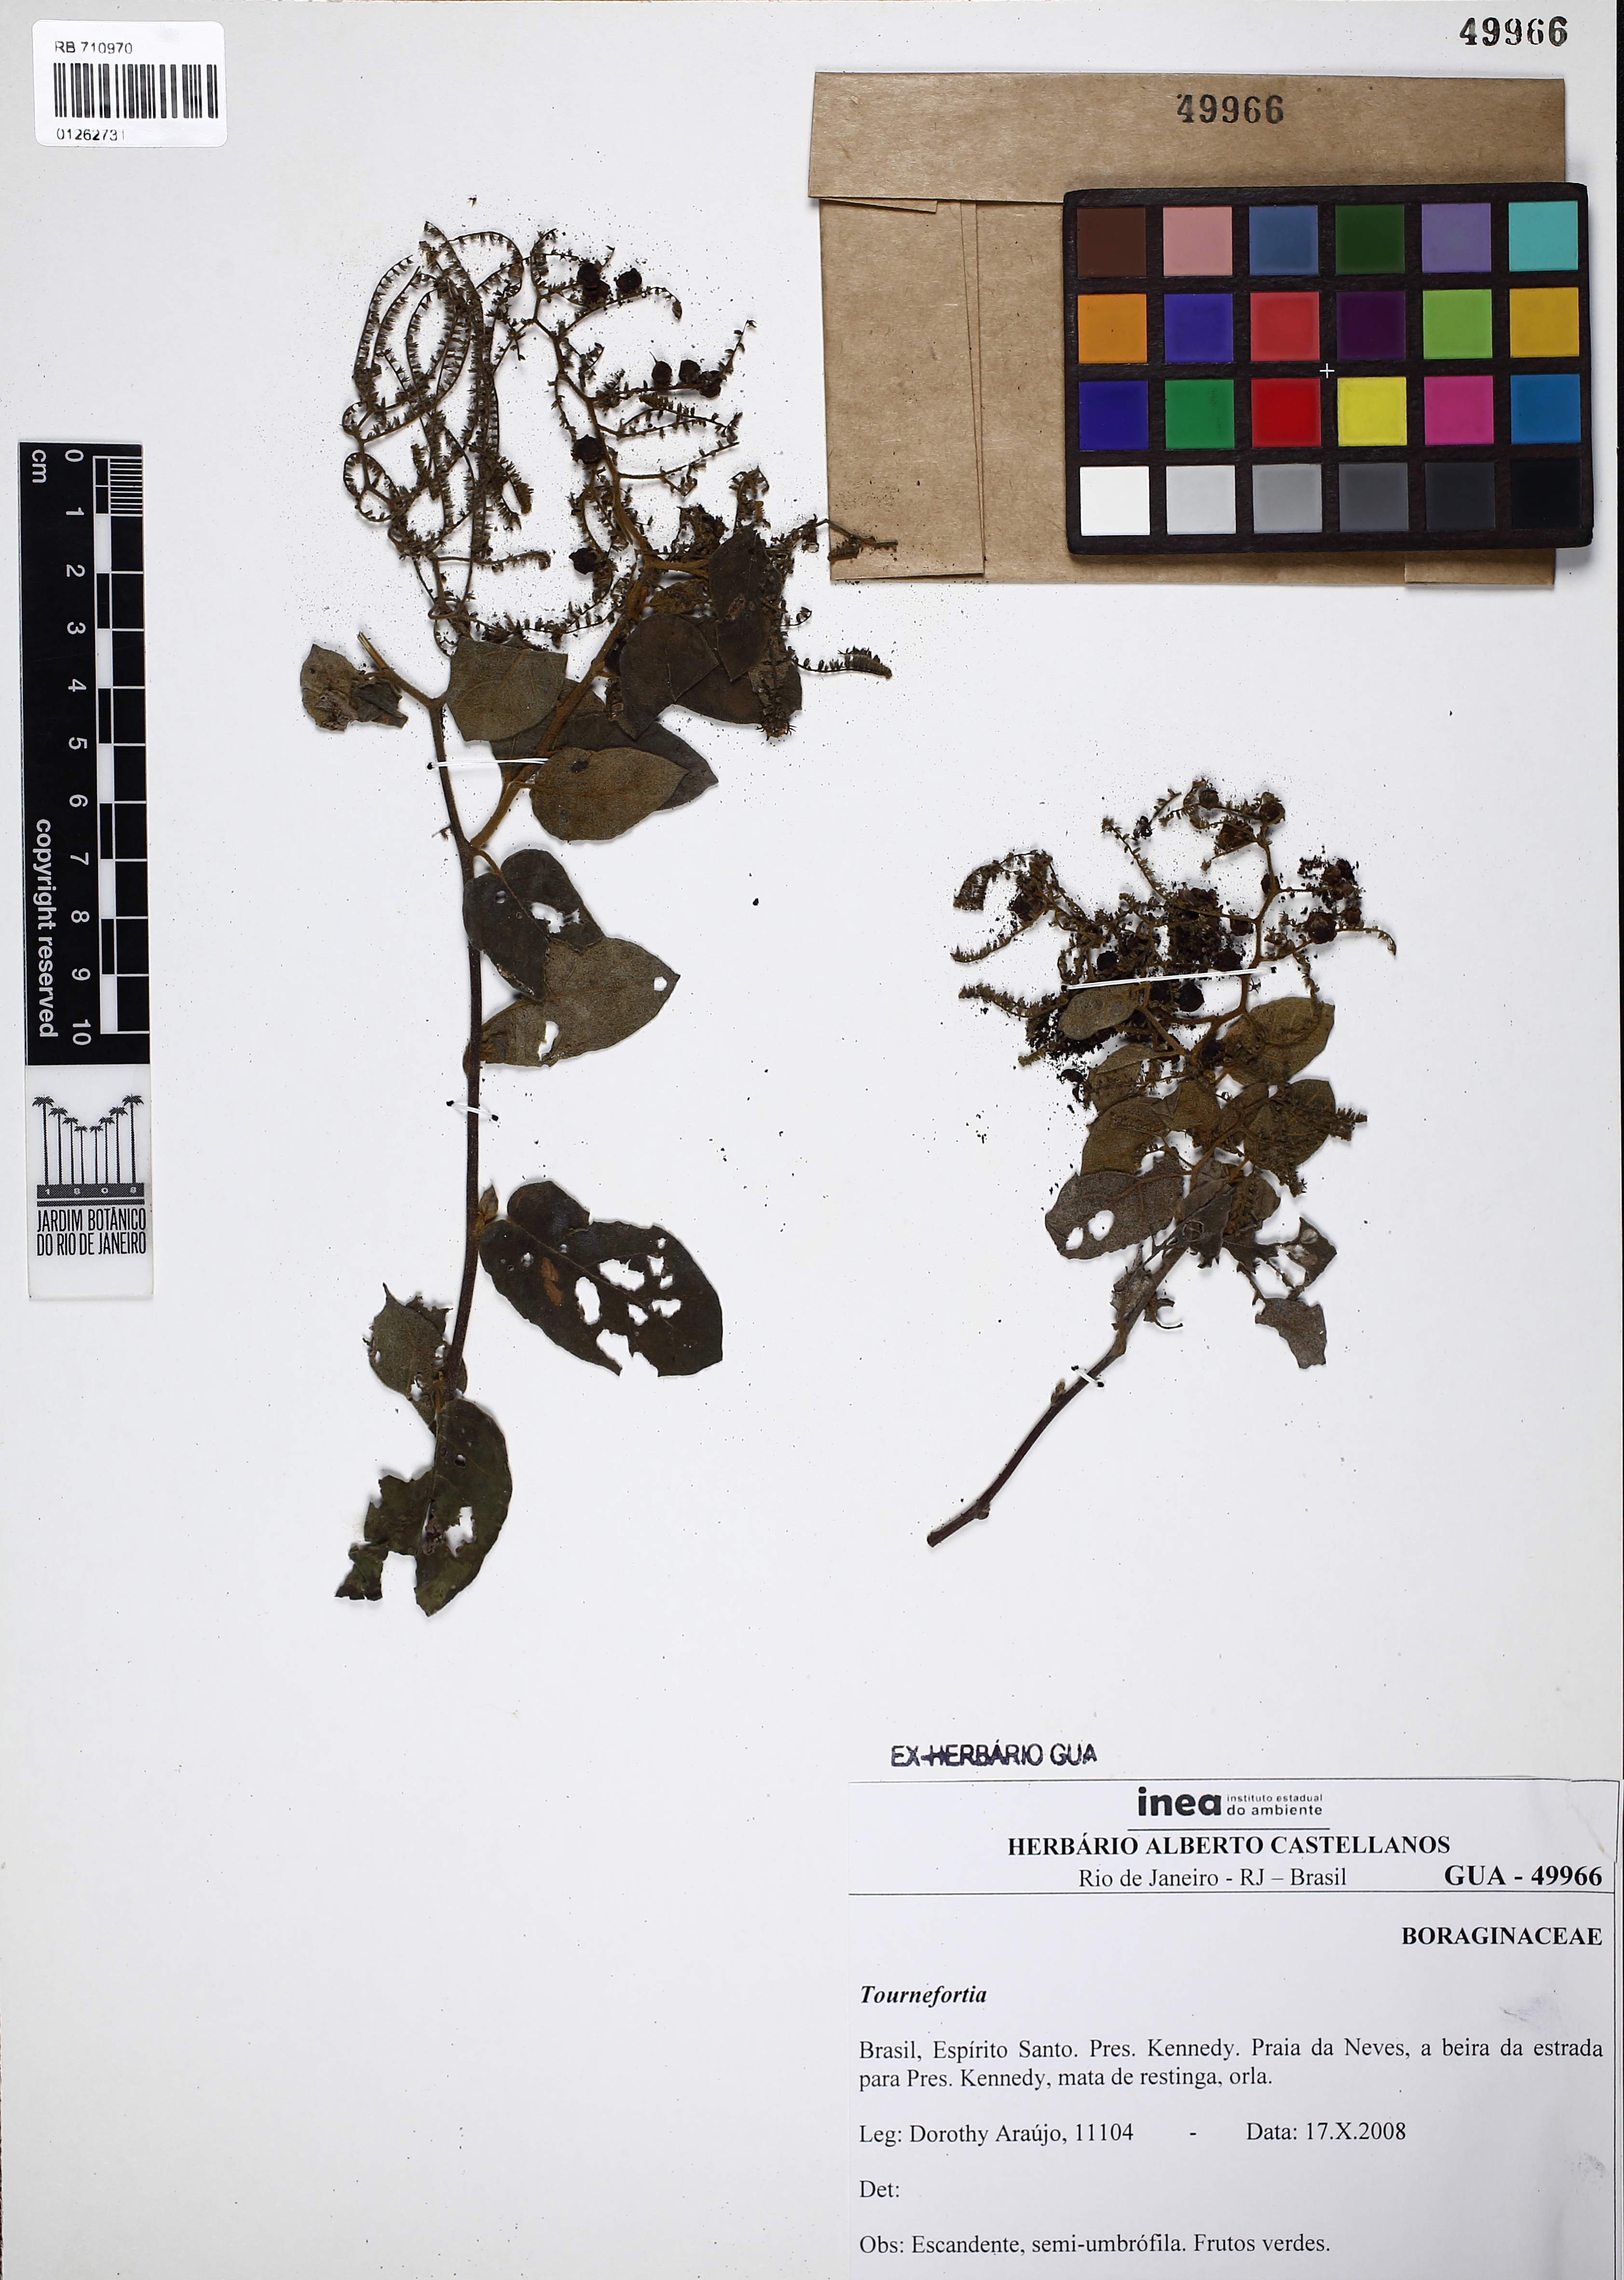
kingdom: Plantae
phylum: Tracheophyta
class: Magnoliopsida
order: Boraginales
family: Heliotropiaceae
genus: Myriopus
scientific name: Myriopus membranaceus
